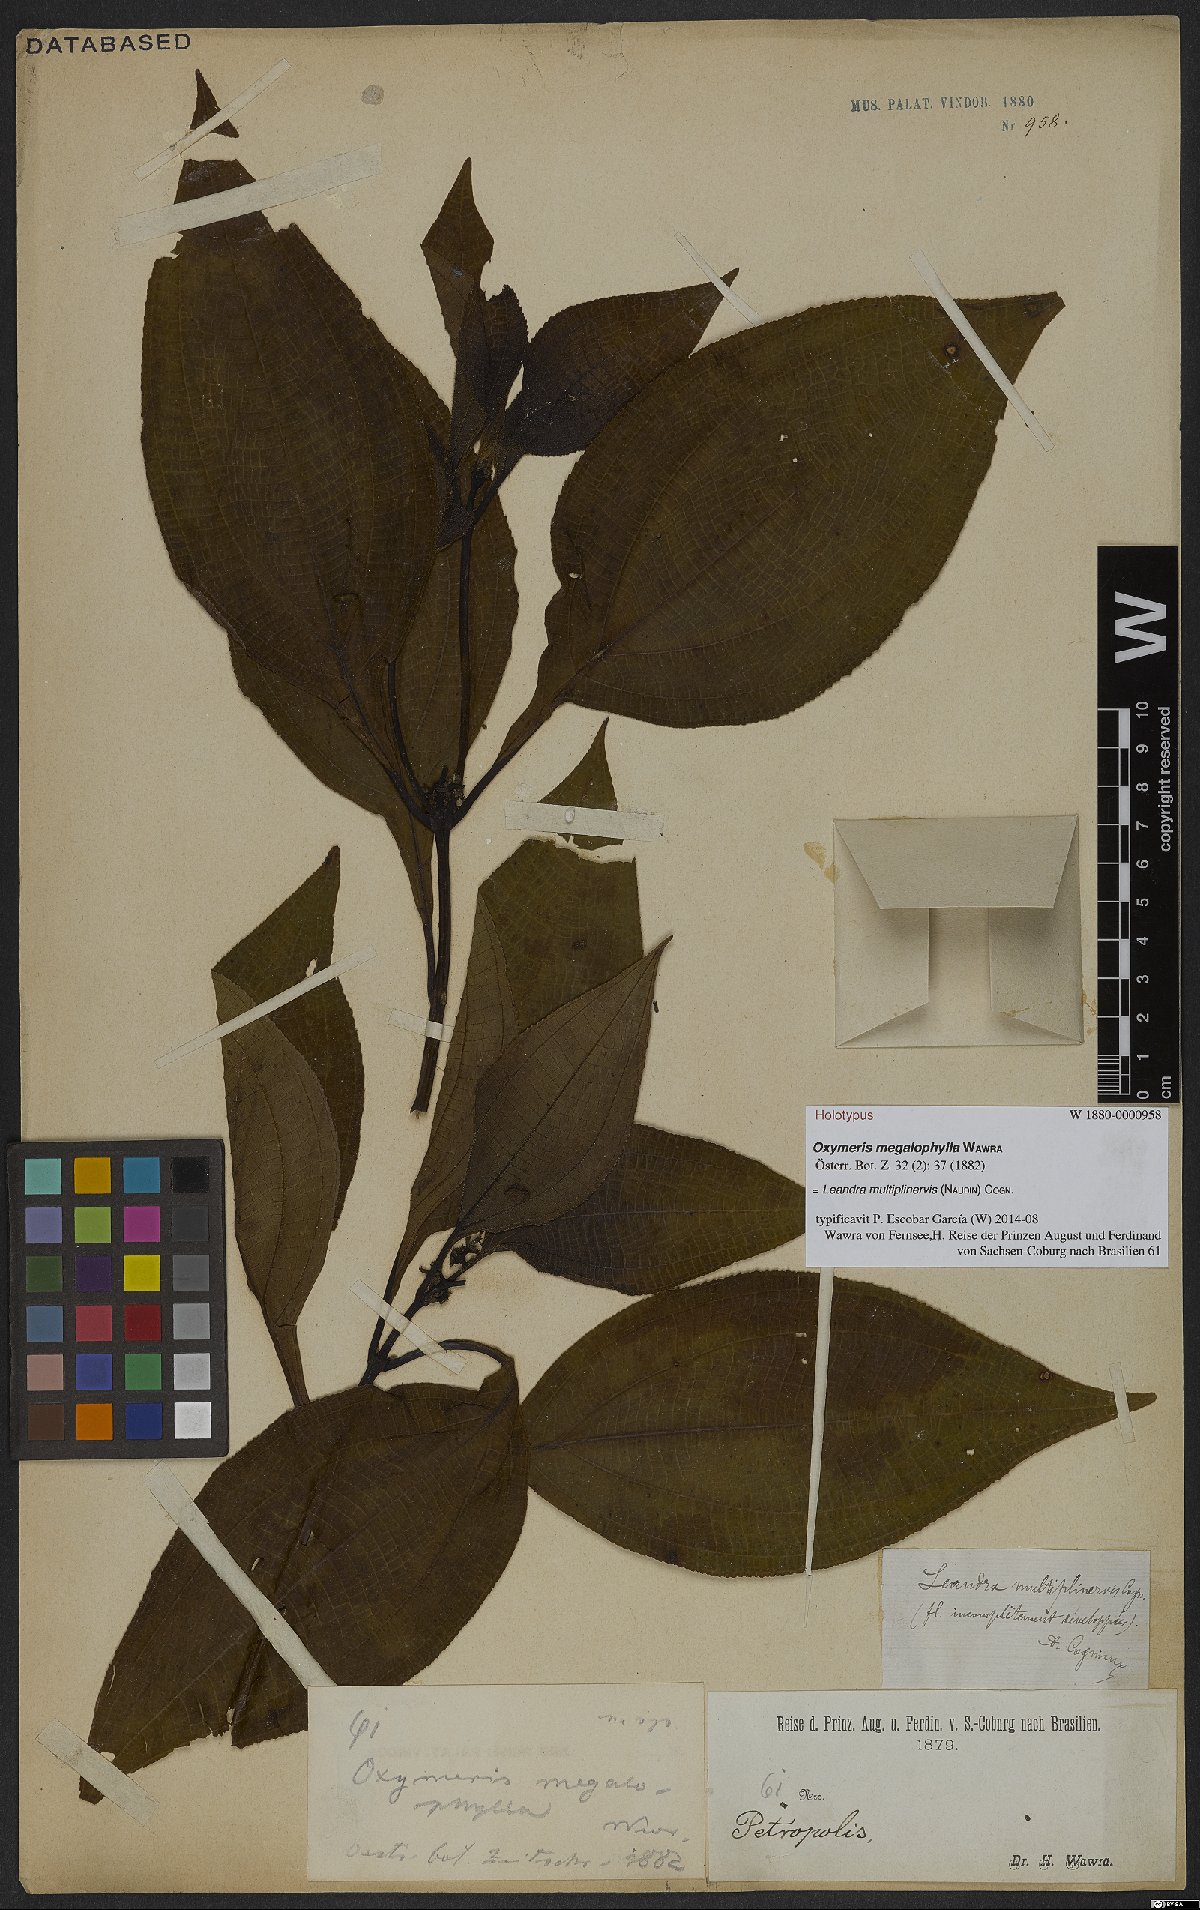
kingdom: Plantae
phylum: Tracheophyta
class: Magnoliopsida
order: Myrtales
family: Melastomataceae
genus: Miconia
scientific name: Miconia oocarpa
